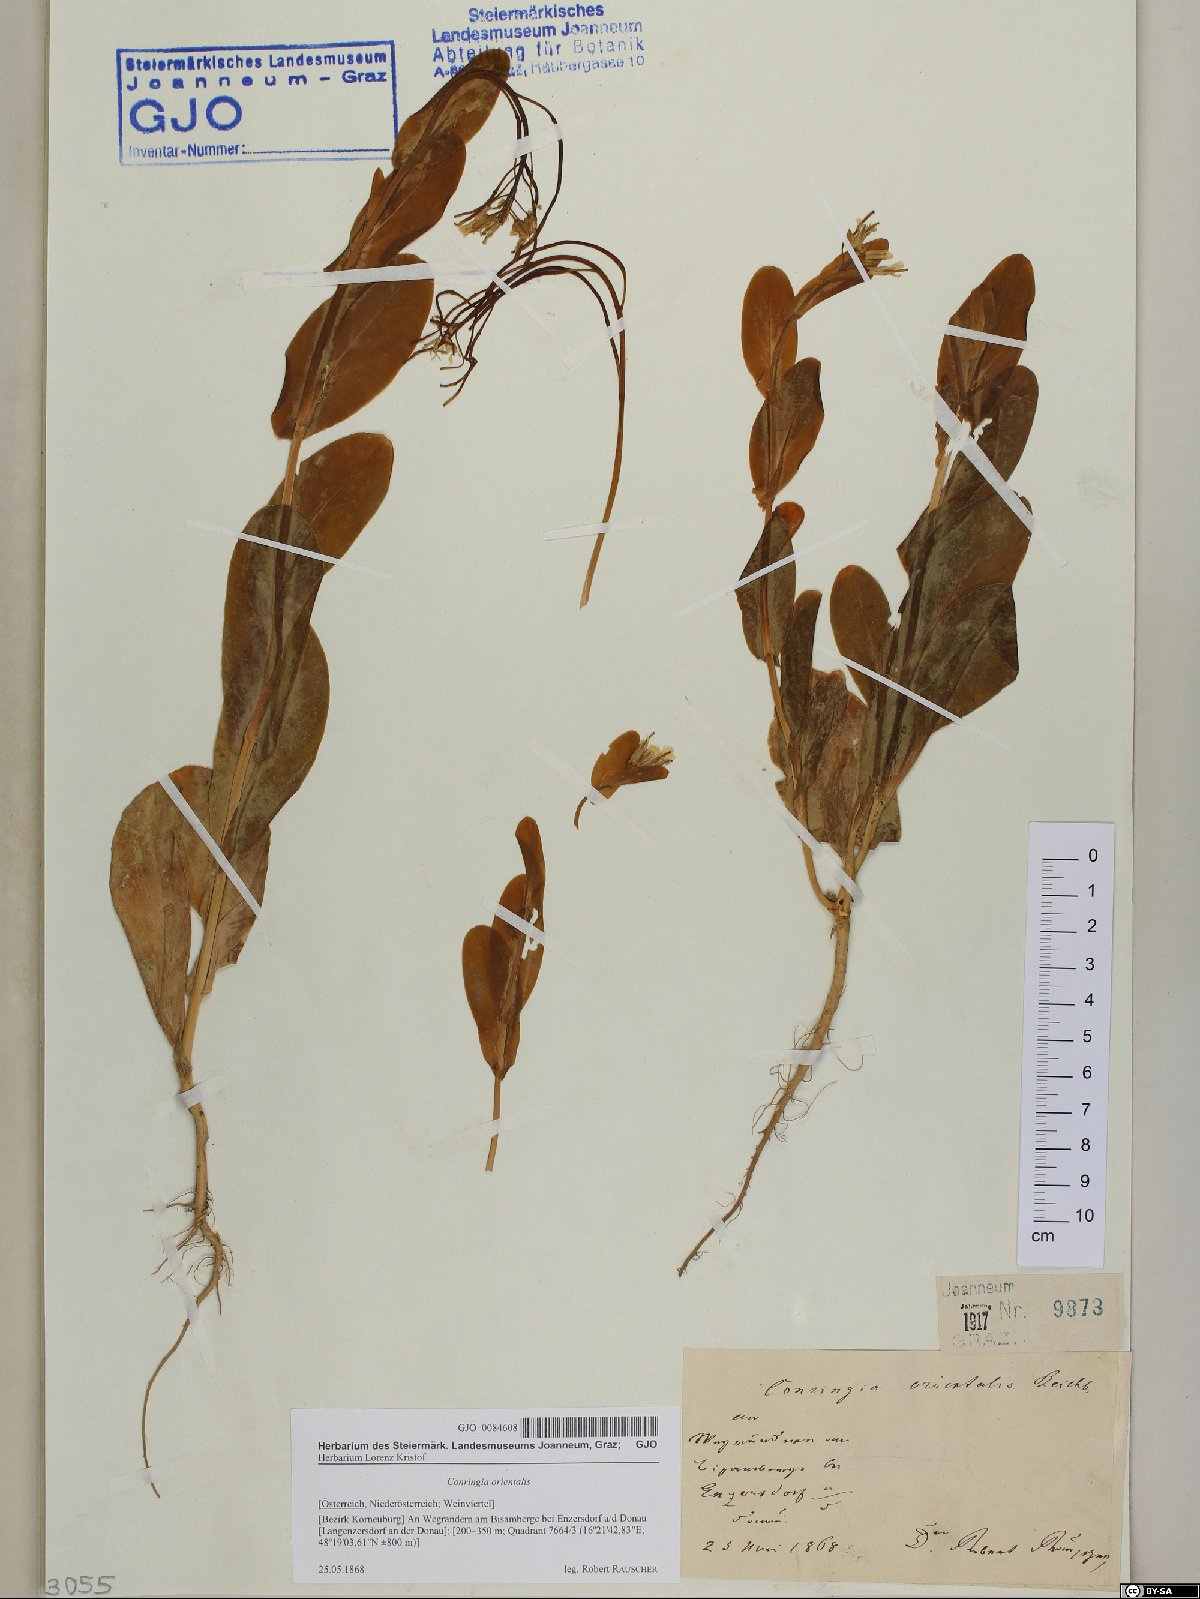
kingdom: Plantae
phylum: Tracheophyta
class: Magnoliopsida
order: Brassicales
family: Brassicaceae
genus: Conringia
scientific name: Conringia orientalis
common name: Hare's ear mustard
